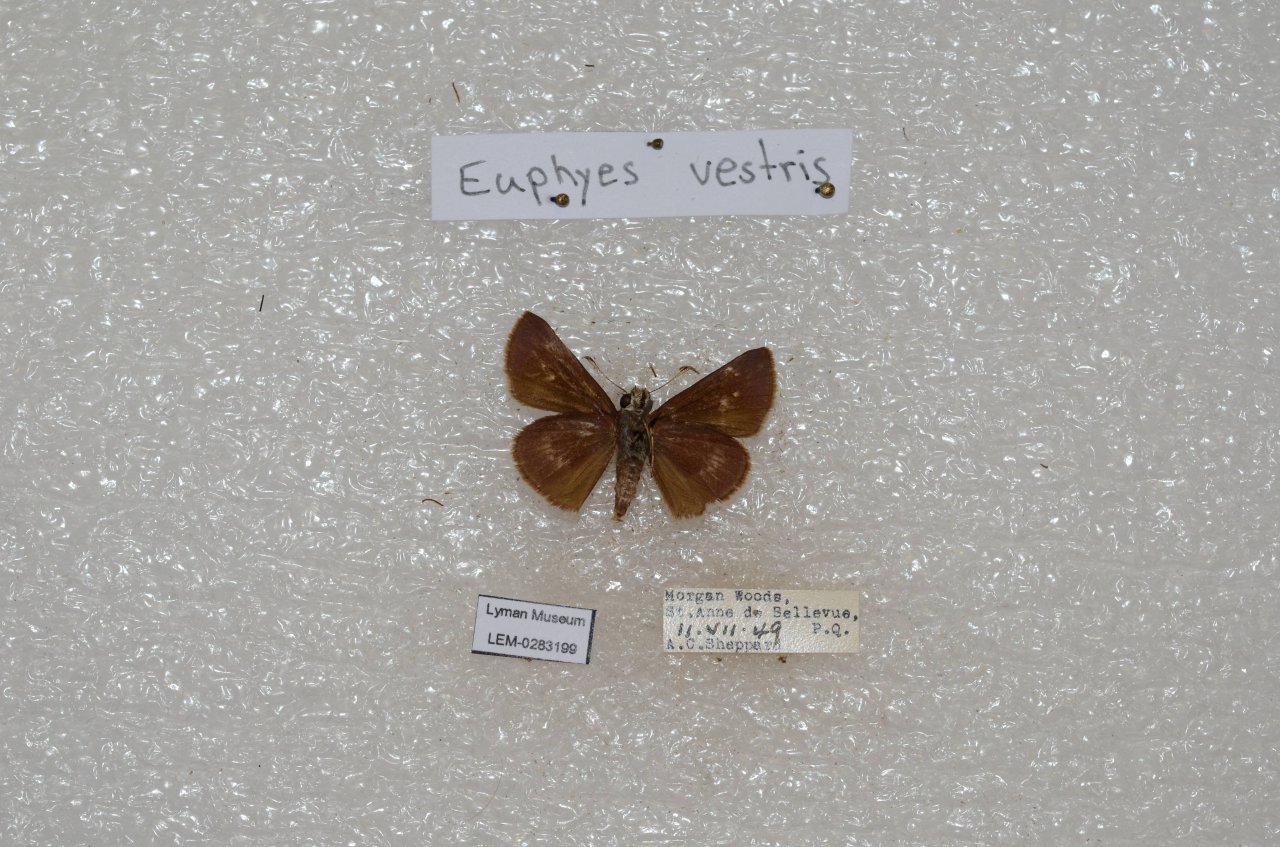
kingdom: Animalia
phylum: Arthropoda
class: Insecta
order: Lepidoptera
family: Hesperiidae
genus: Euphyes
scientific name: Euphyes vestris
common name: Dun Skipper
